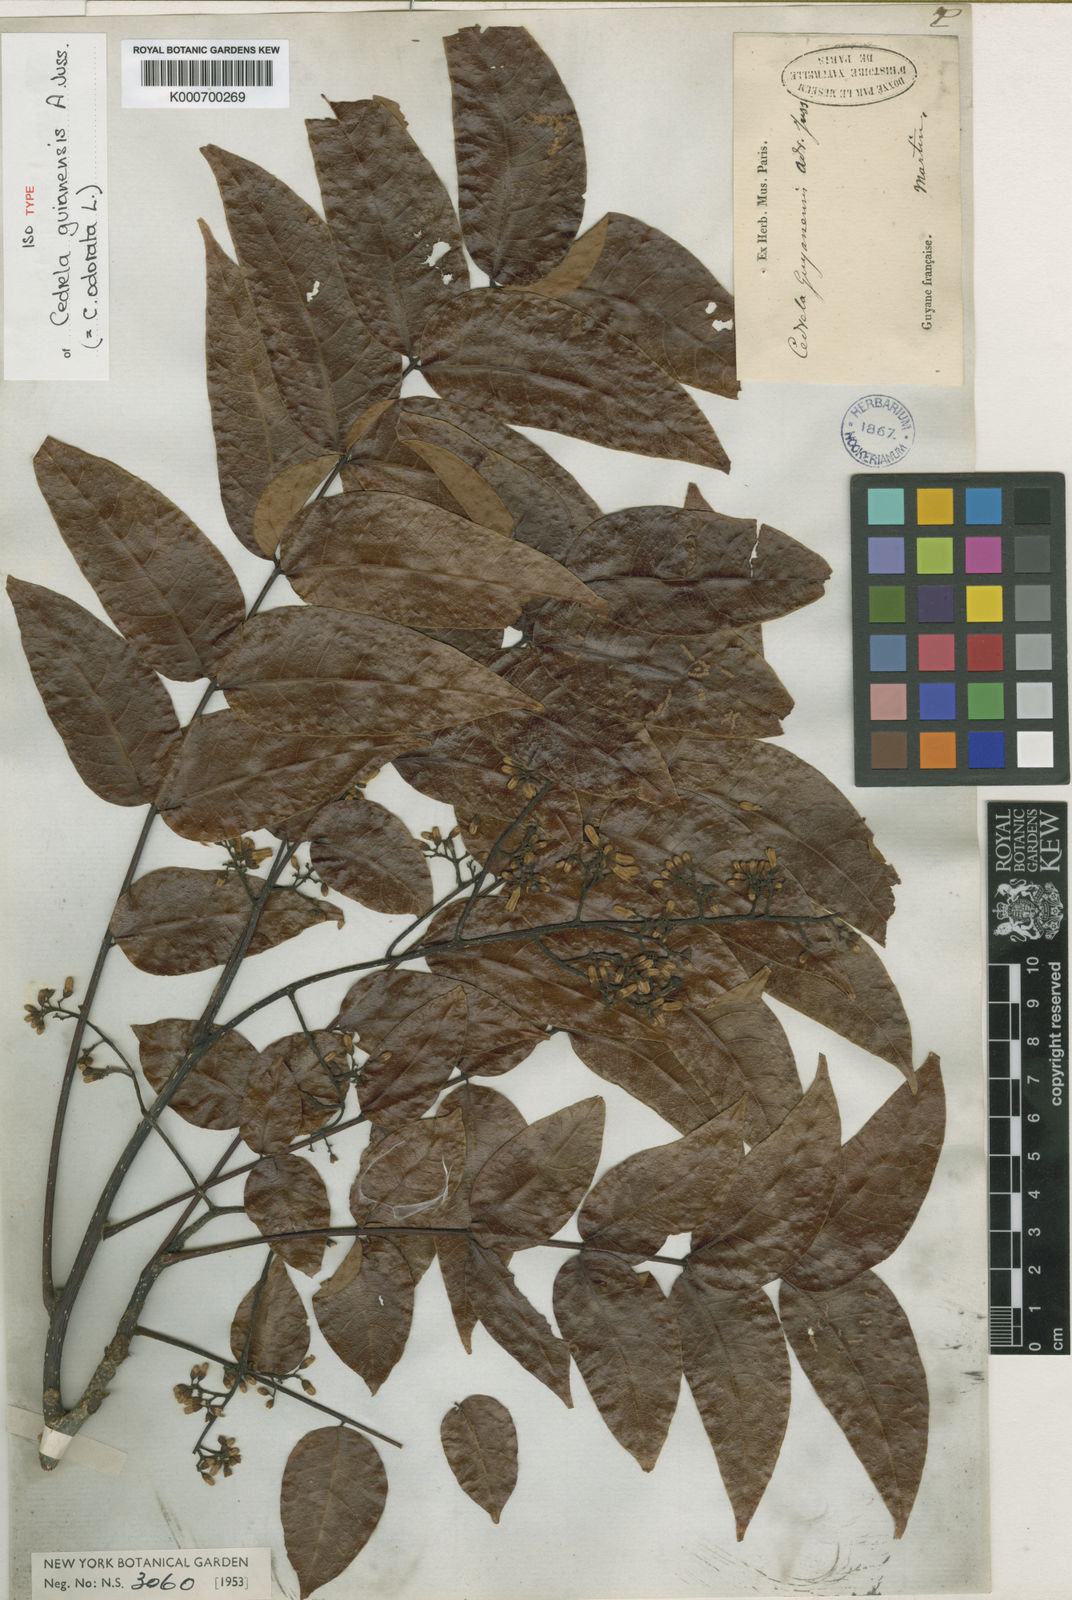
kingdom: Plantae
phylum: Tracheophyta
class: Magnoliopsida
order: Sapindales
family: Meliaceae
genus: Cedrela
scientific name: Cedrela odorata
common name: Red cedar
